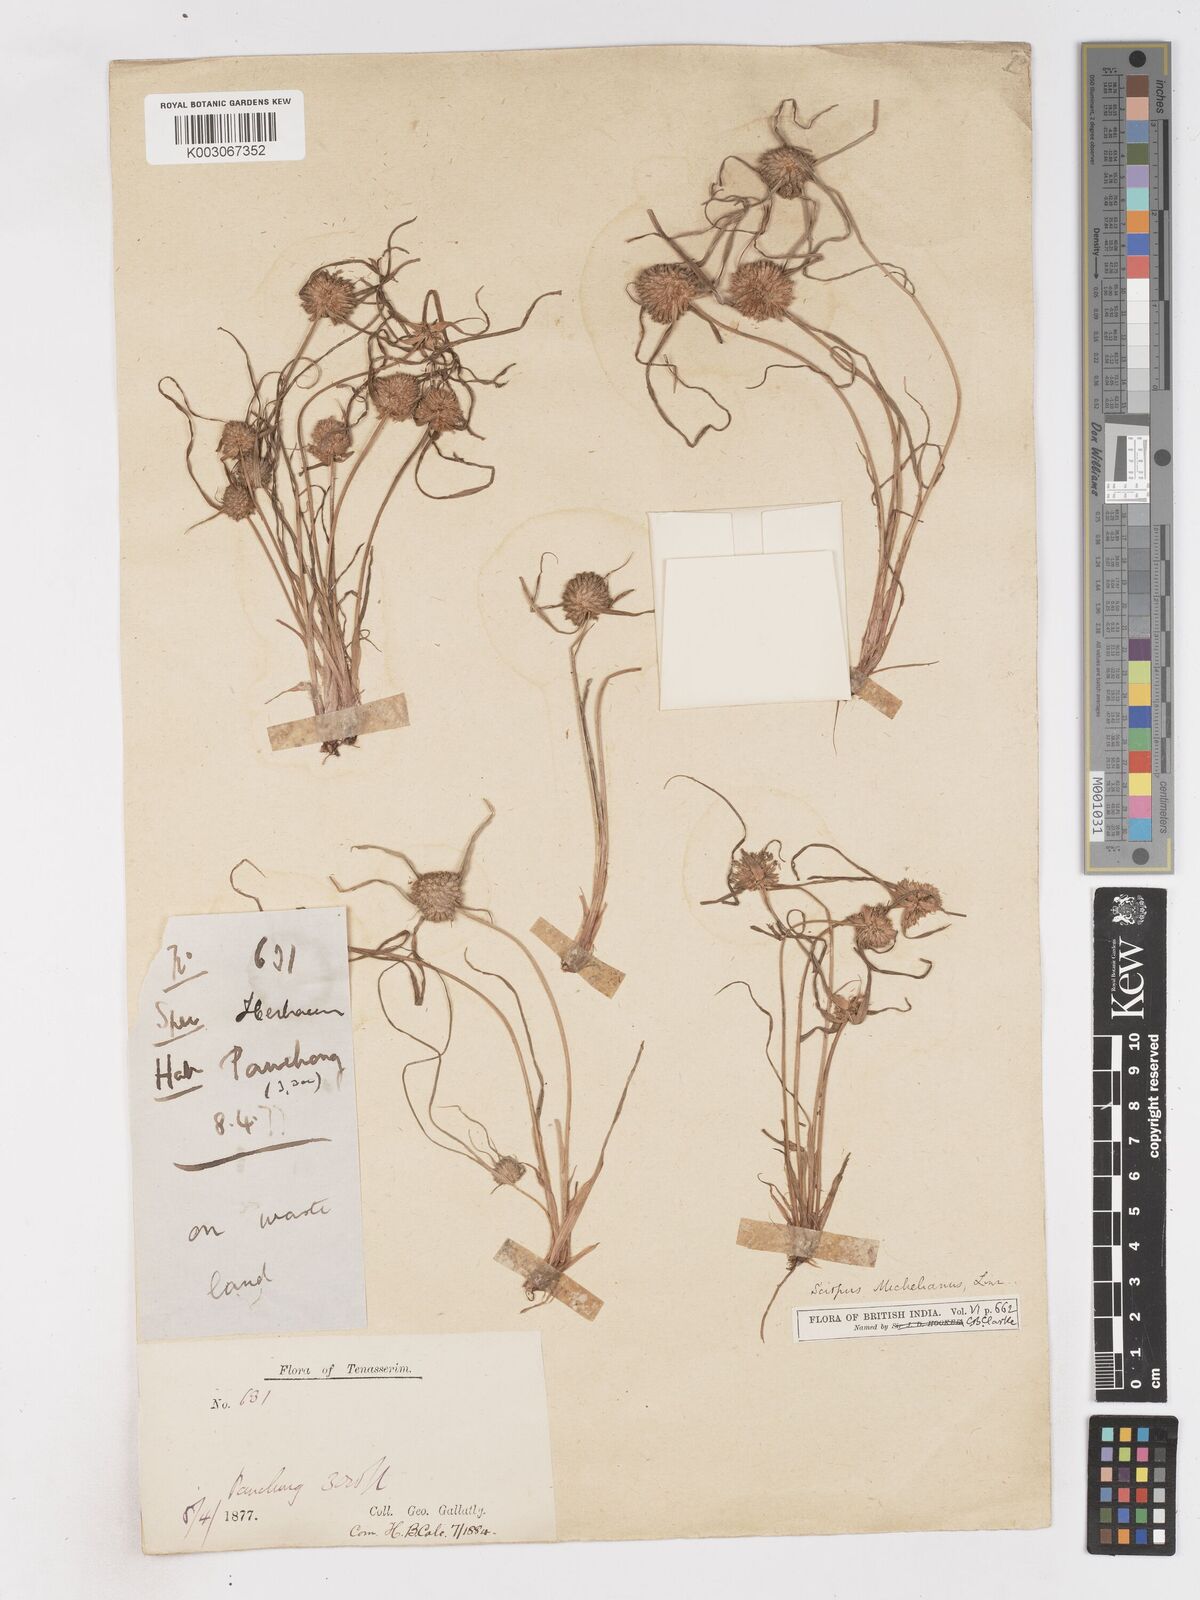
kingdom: Plantae
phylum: Tracheophyta
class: Liliopsida
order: Poales
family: Cyperaceae
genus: Cyperus
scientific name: Cyperus michelianus
